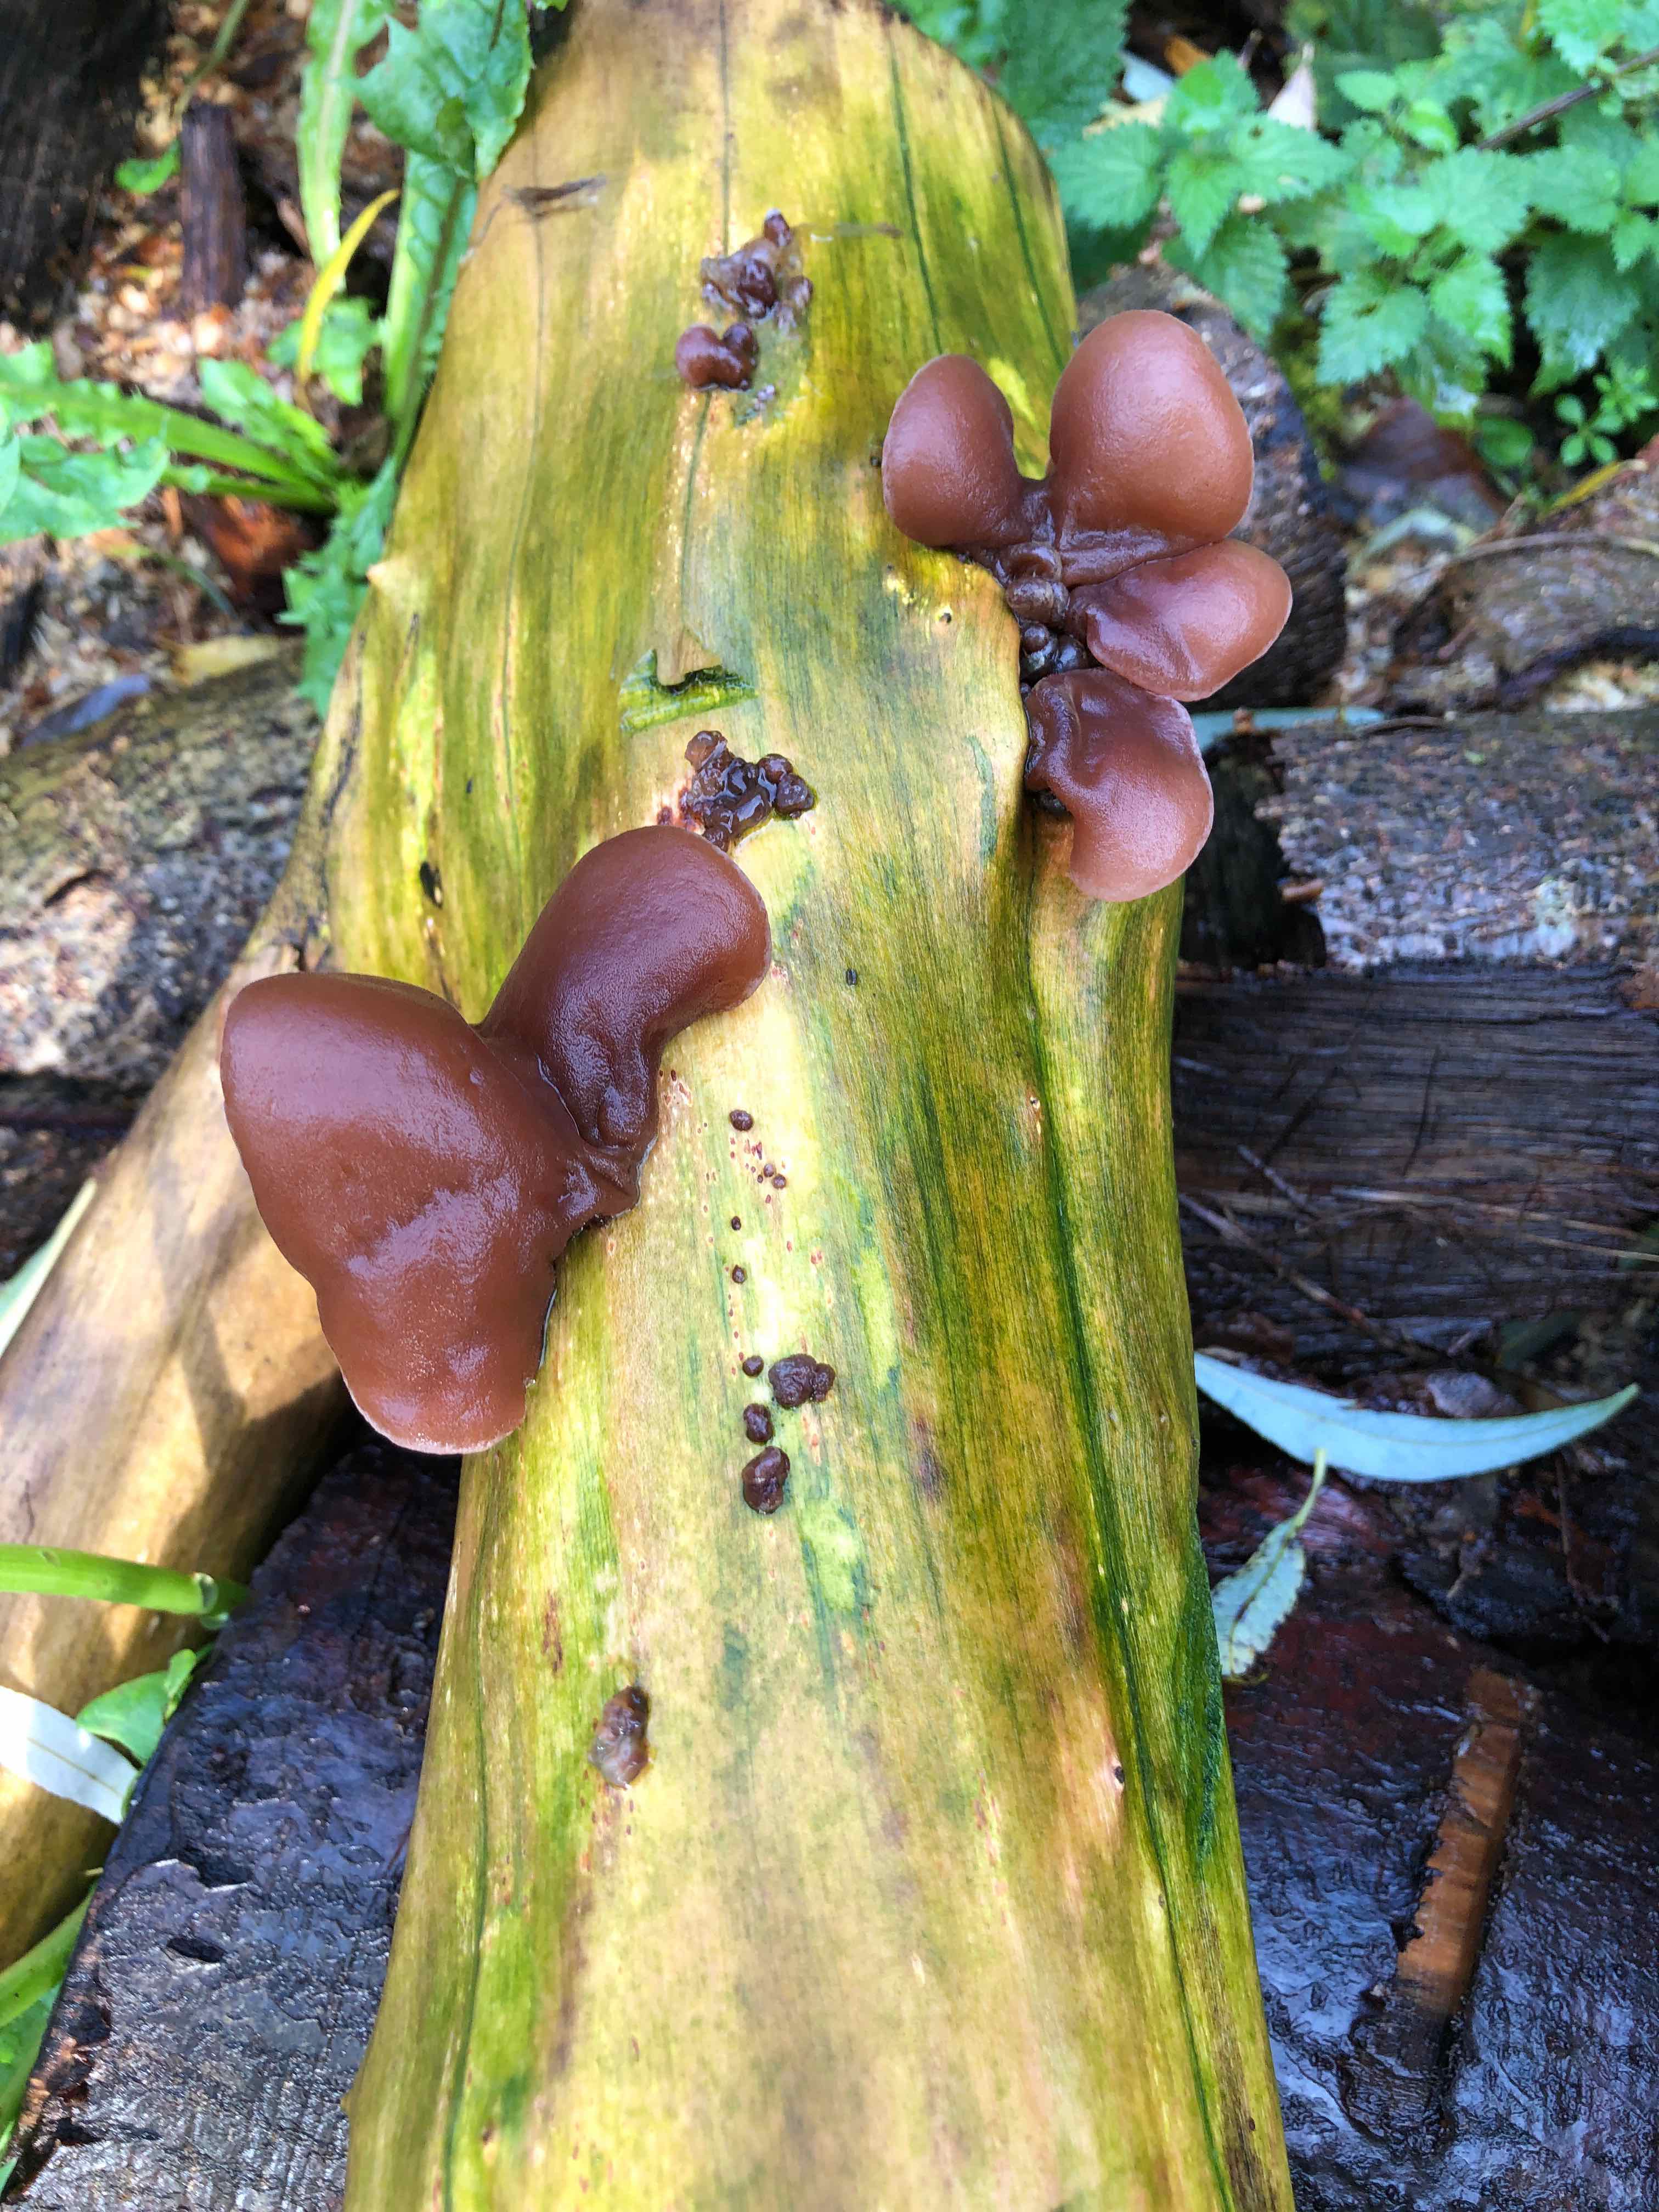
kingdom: Fungi
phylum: Basidiomycota
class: Agaricomycetes
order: Auriculariales
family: Auriculariaceae
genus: Auricularia
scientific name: Auricularia auricula-judae
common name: almindelig judasøre
